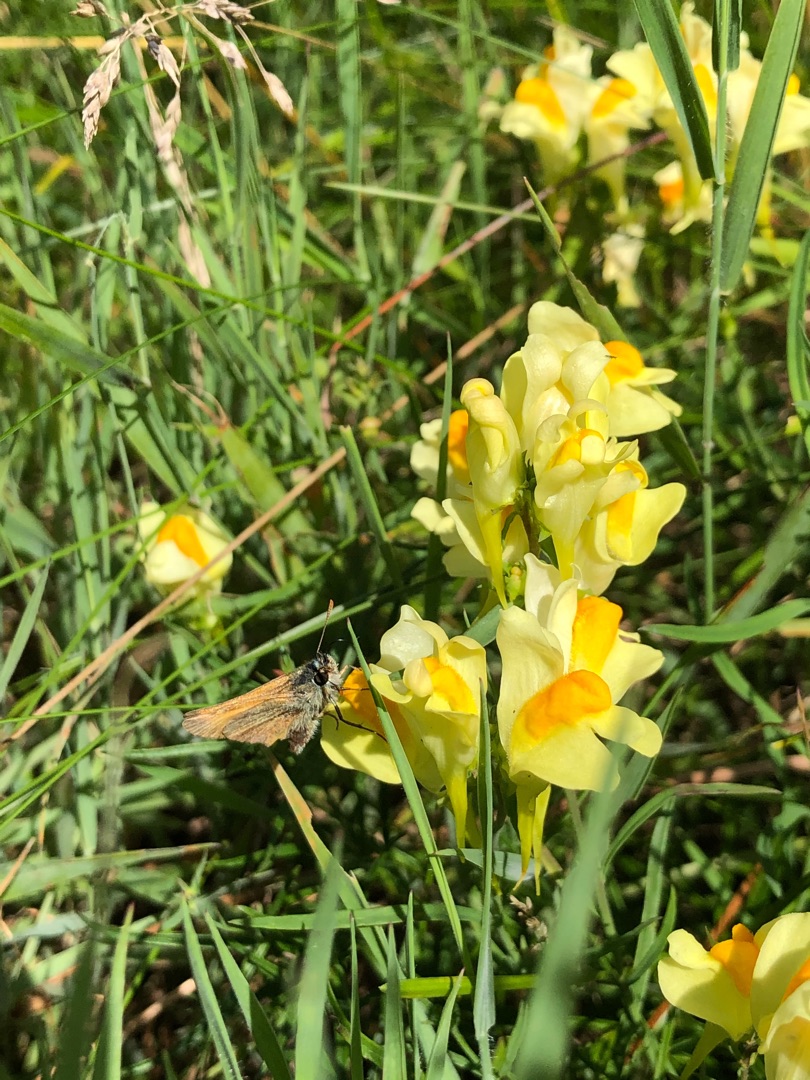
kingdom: Plantae
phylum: Tracheophyta
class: Magnoliopsida
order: Lamiales
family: Plantaginaceae
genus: Linaria
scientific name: Linaria vulgaris
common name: Almindelig torskemund
